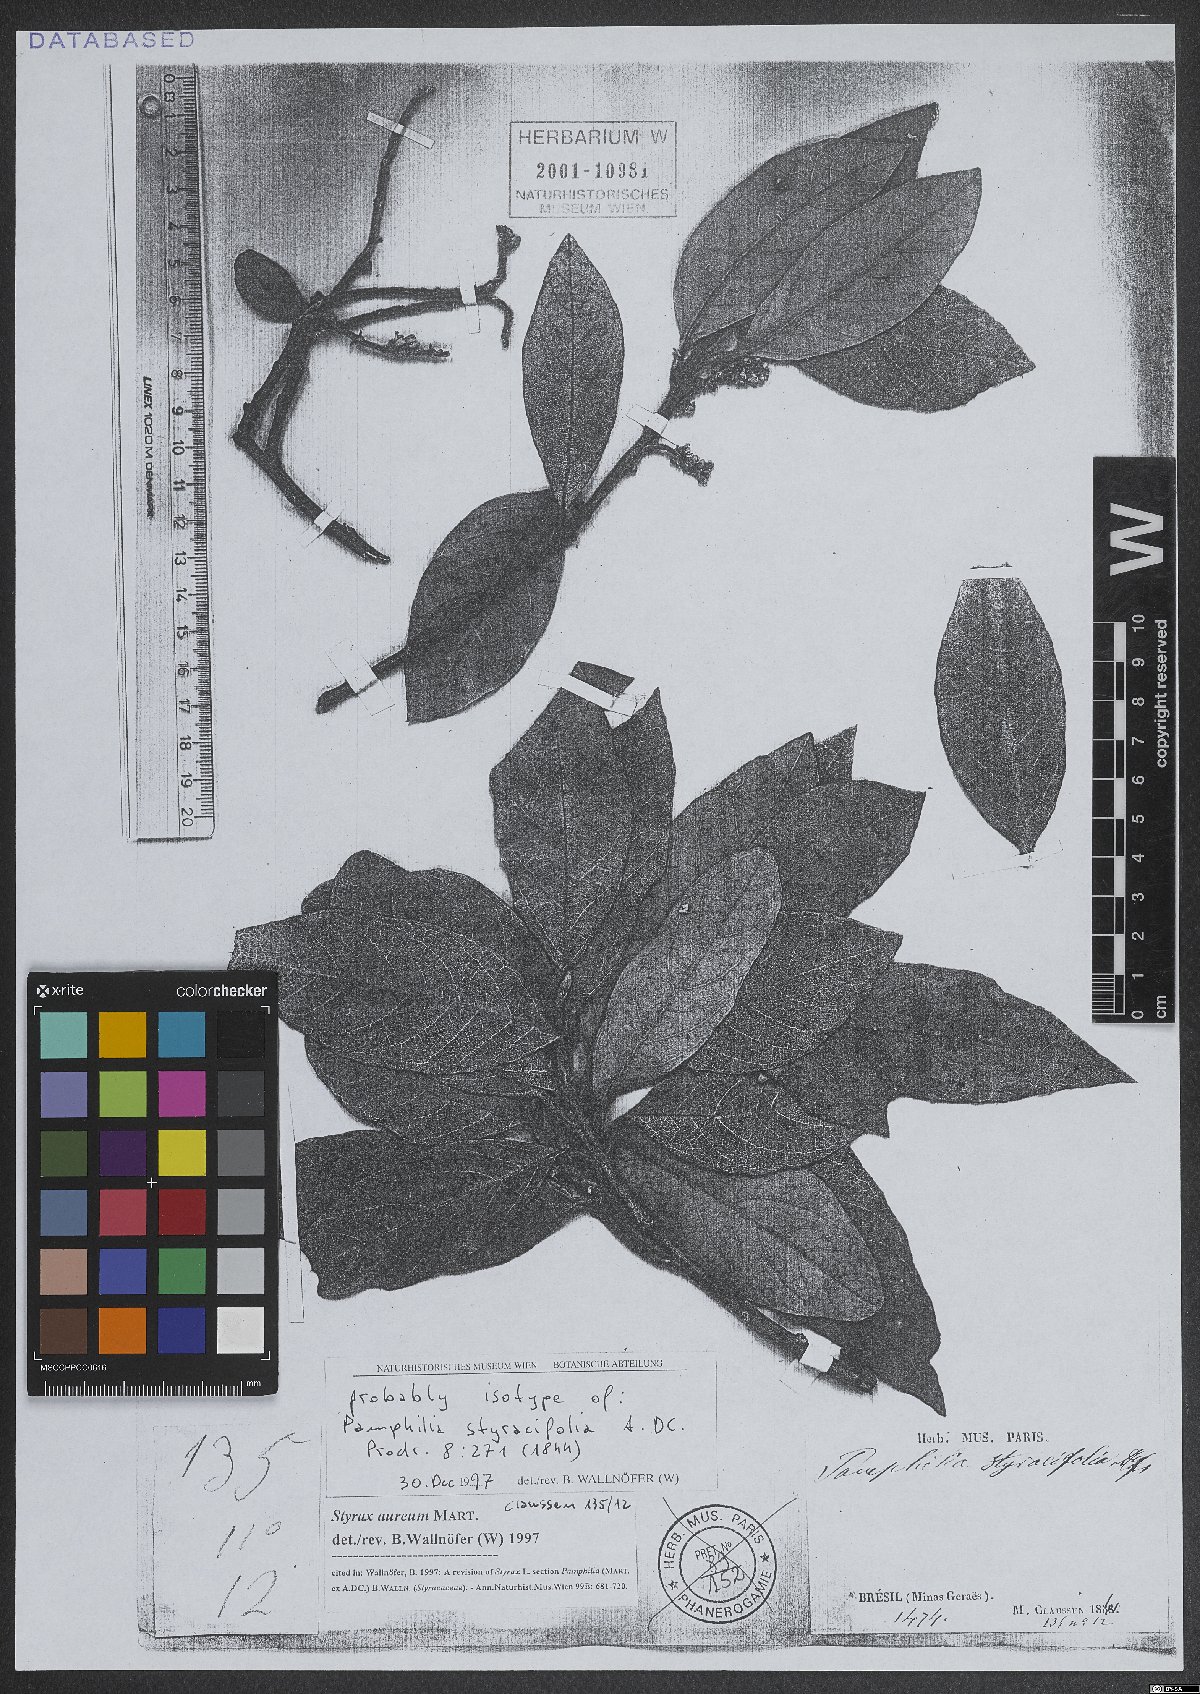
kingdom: Plantae
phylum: Tracheophyta
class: Magnoliopsida
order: Ericales
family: Styracaceae
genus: Styrax
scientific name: Styrax aureus
